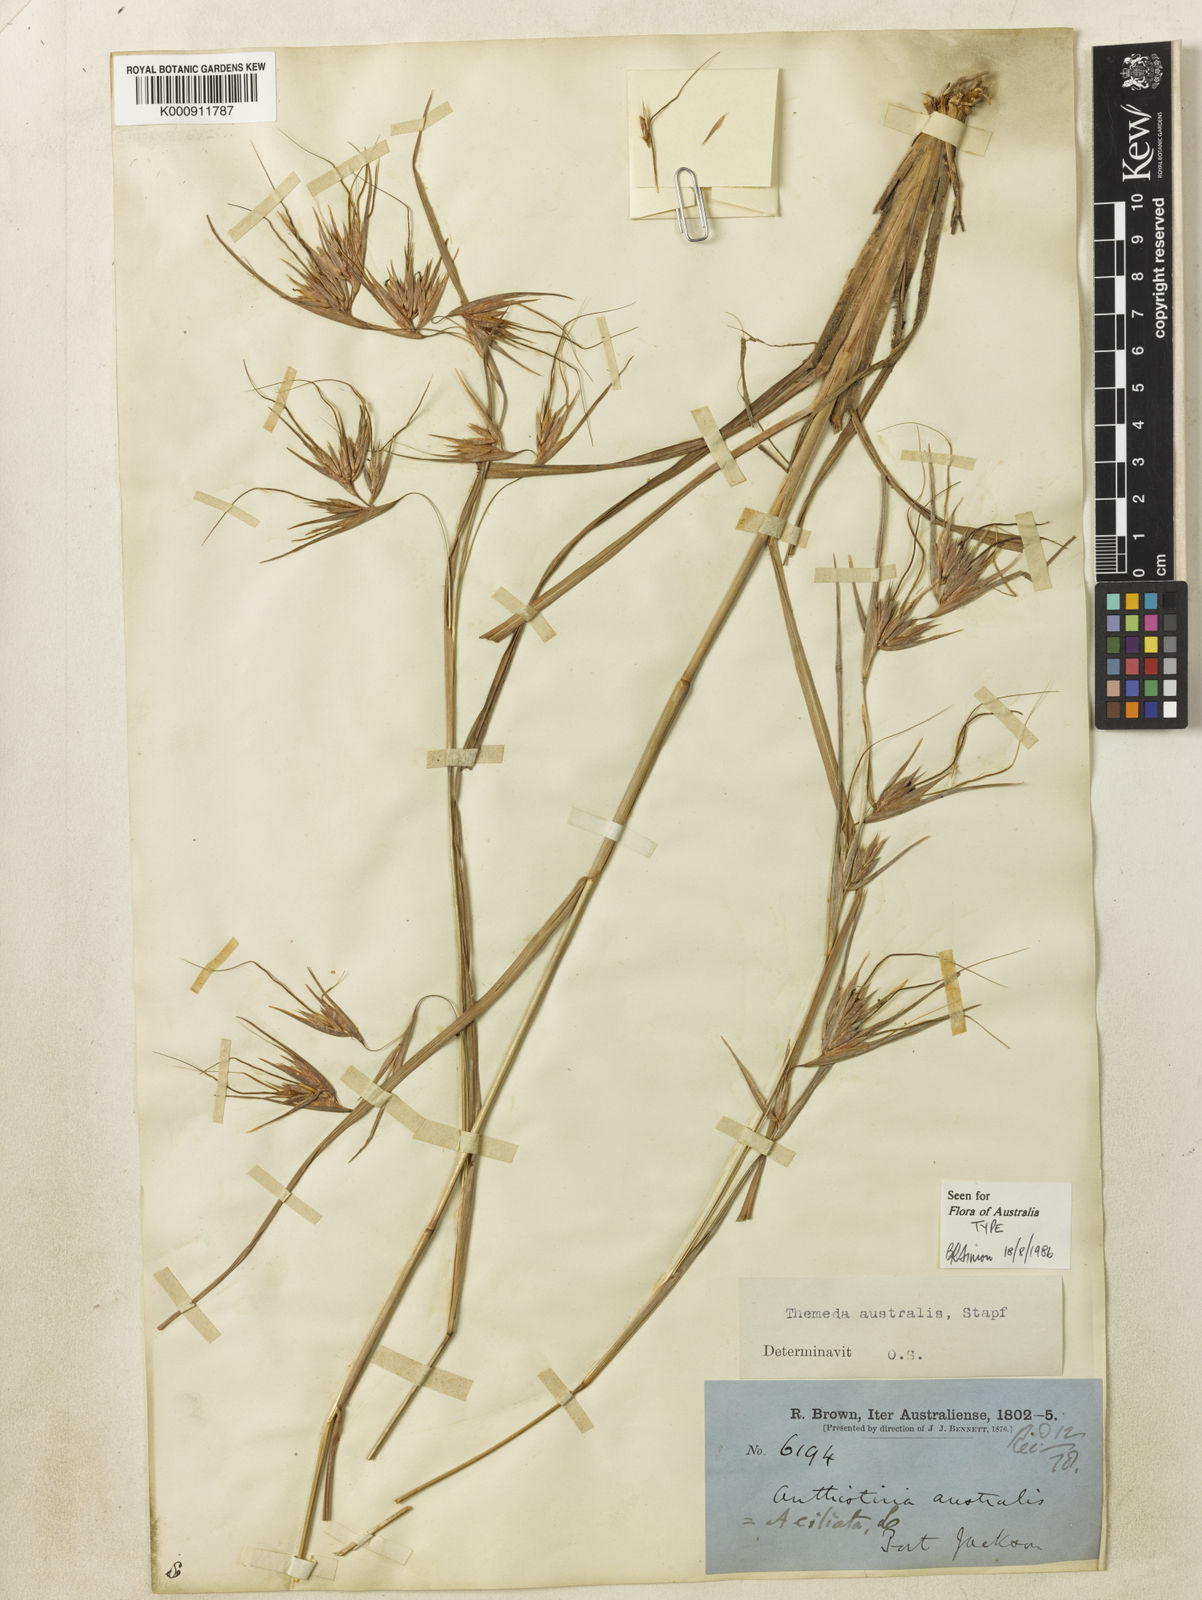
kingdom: Plantae
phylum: Tracheophyta
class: Liliopsida
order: Poales
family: Poaceae
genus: Themeda
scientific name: Themeda triandra
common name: Kangaroo grass
